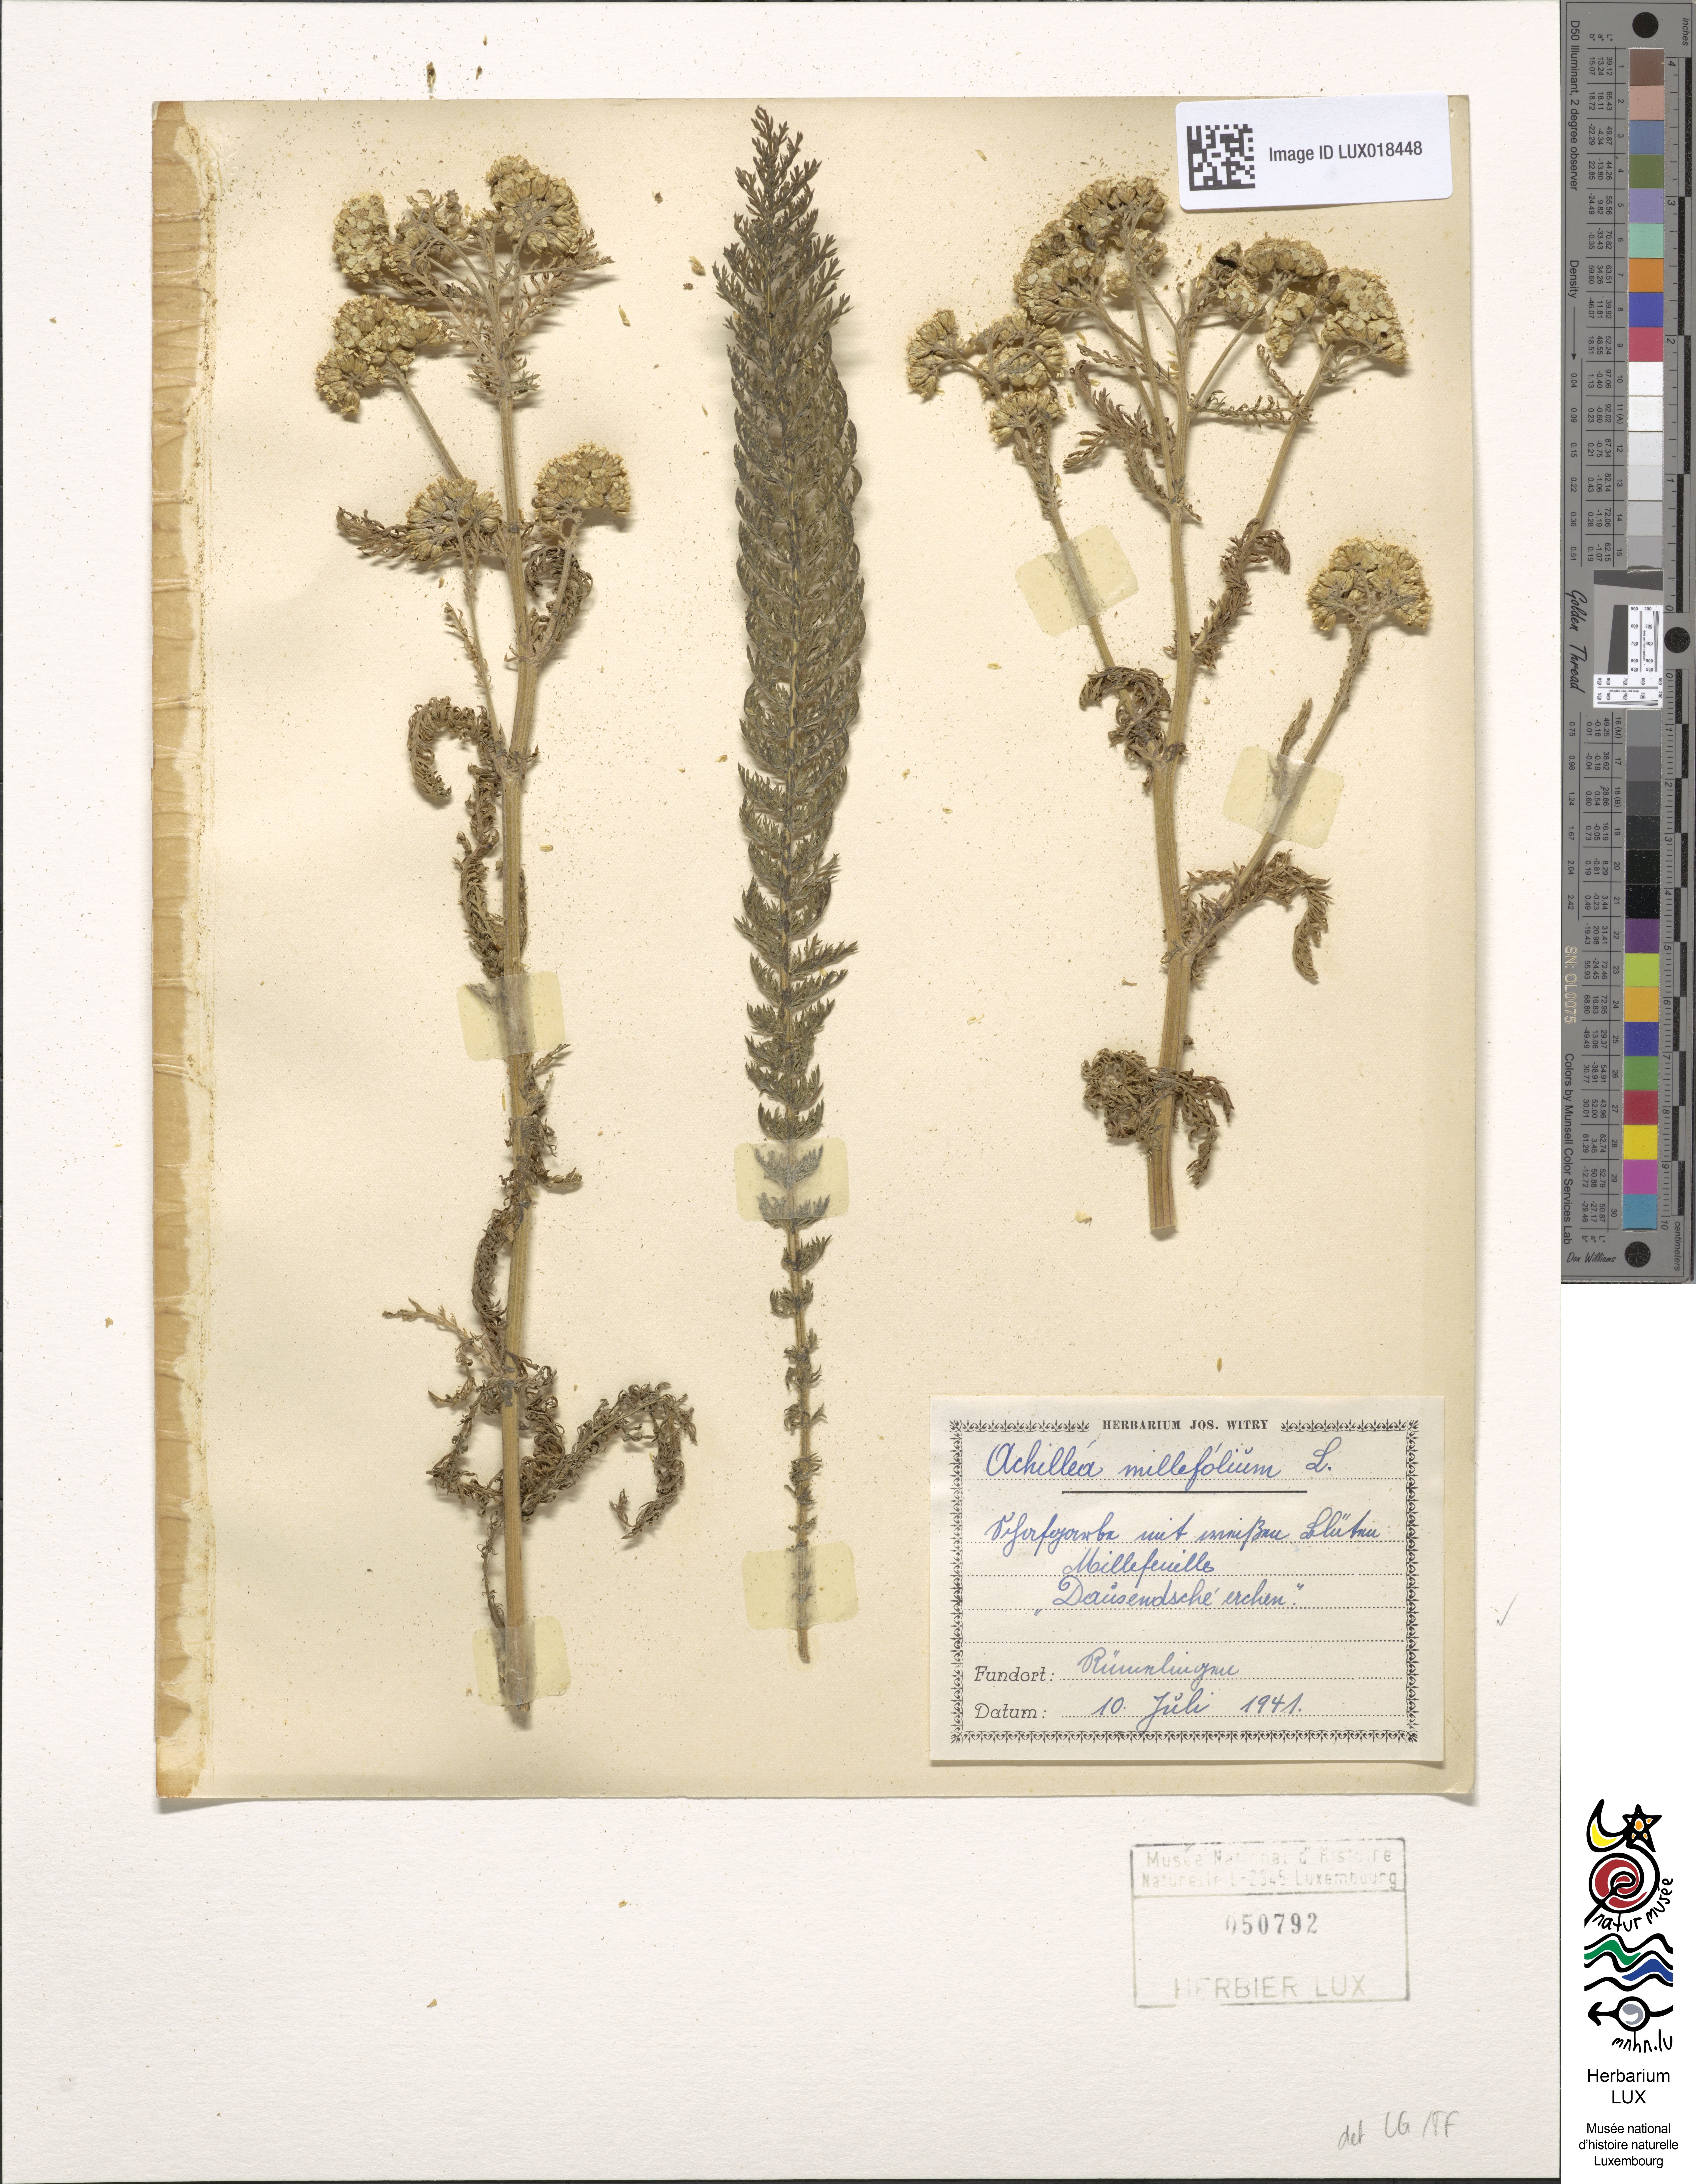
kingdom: Plantae
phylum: Tracheophyta
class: Magnoliopsida
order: Asterales
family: Asteraceae
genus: Achillea
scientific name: Achillea millefolium
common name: Yarrow
